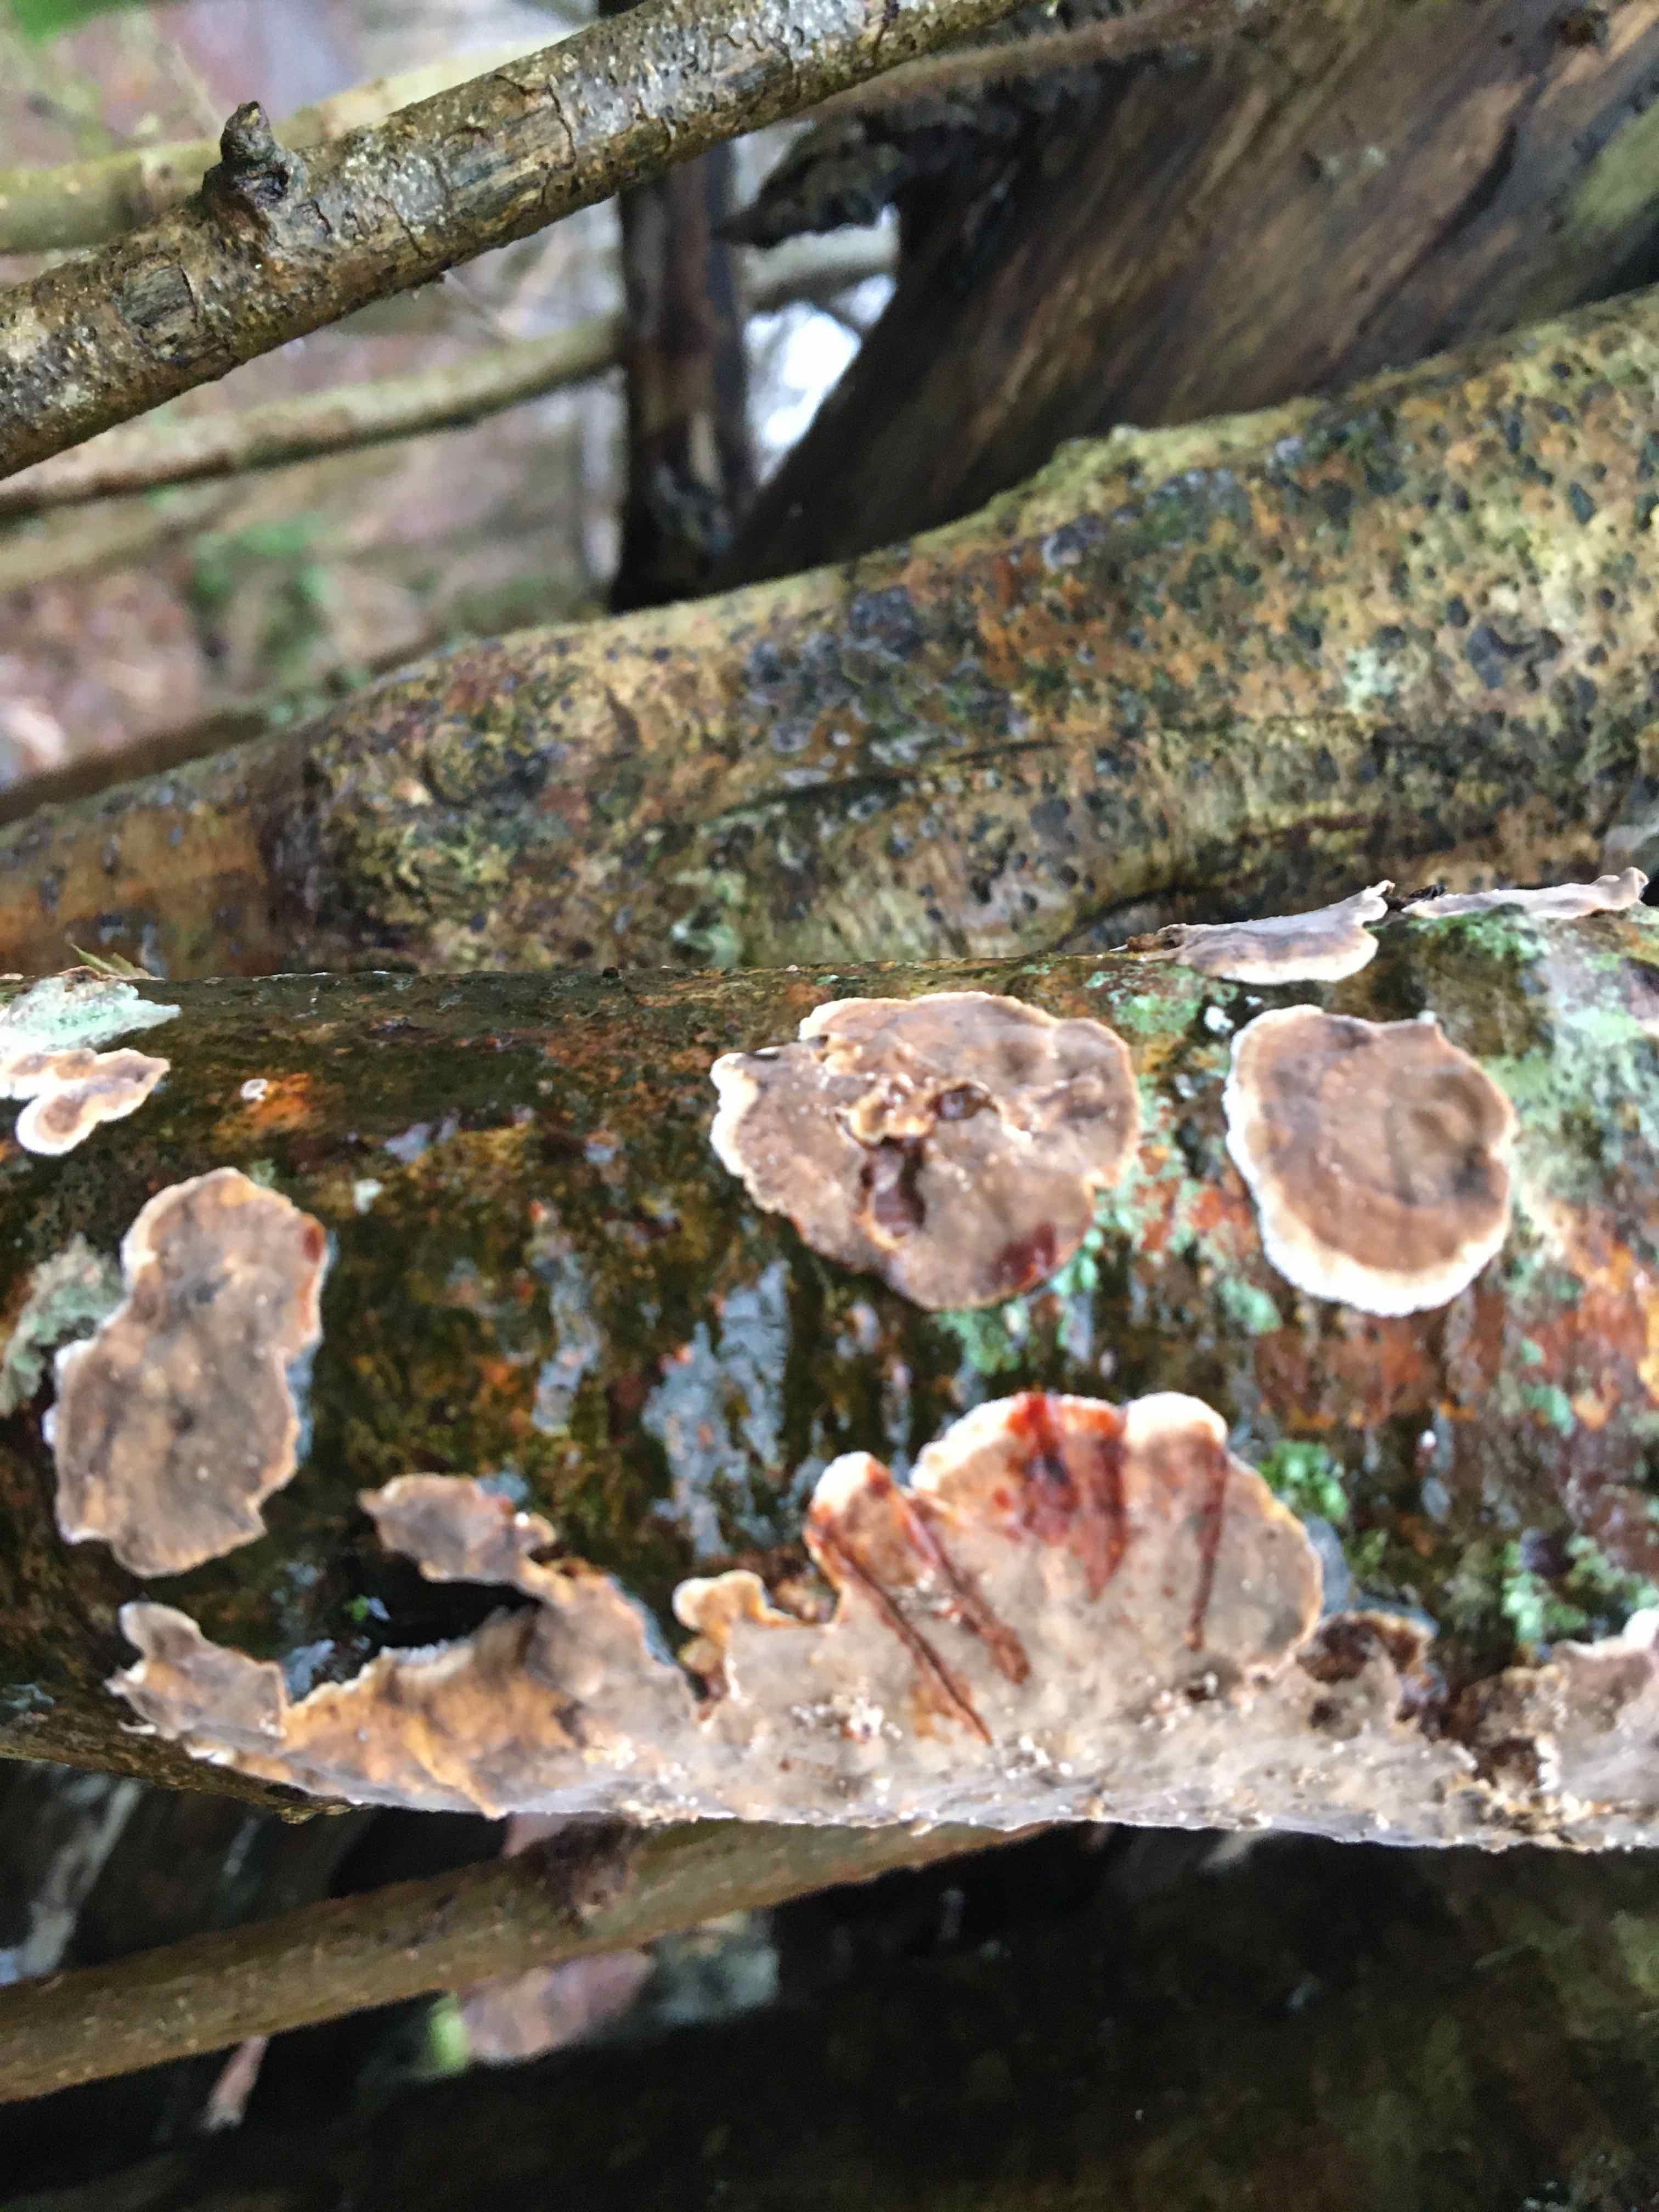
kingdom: Fungi
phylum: Basidiomycota
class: Agaricomycetes
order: Russulales
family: Stereaceae
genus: Stereum
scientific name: Stereum rugosum
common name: rynket lædersvamp
